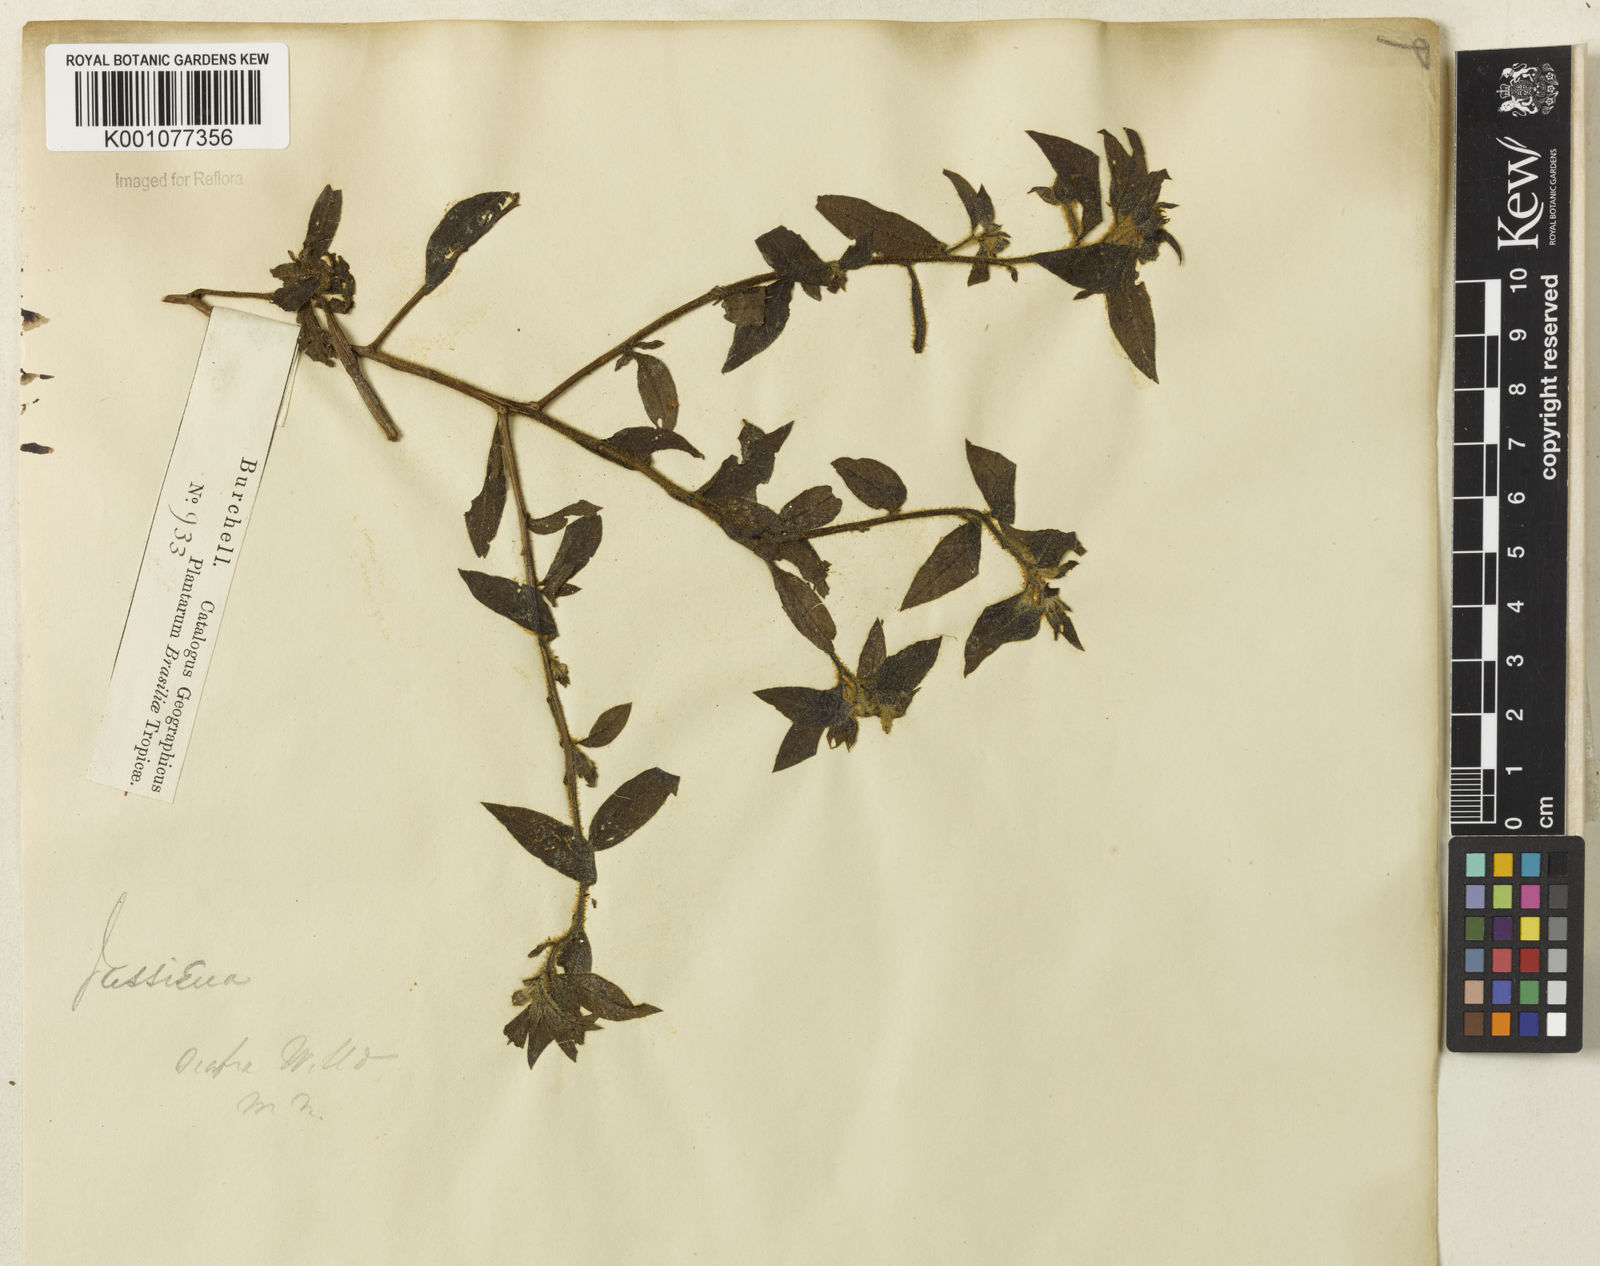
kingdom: Plantae
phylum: Tracheophyta
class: Magnoliopsida
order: Myrtales
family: Onagraceae
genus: Ludwigia
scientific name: Ludwigia octovalvis
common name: Water-primrose
